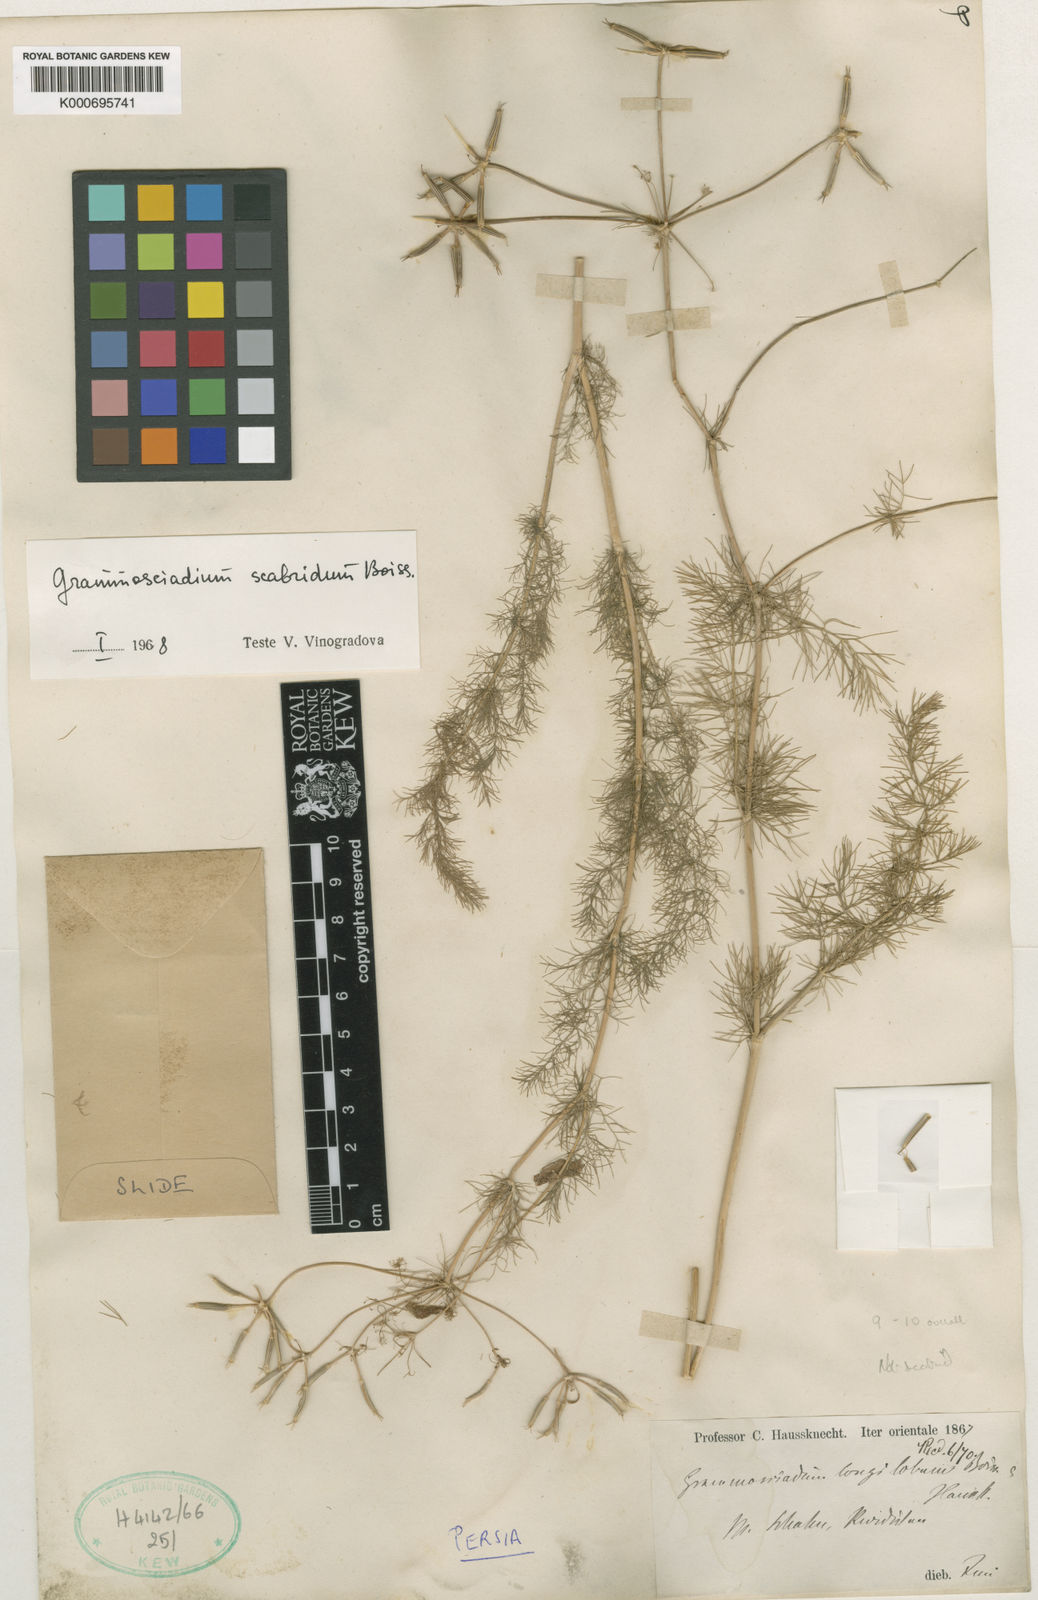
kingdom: Plantae
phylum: Tracheophyta
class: Magnoliopsida
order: Apiales
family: Apiaceae
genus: Grammosciadium
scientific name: Grammosciadium scabridum
